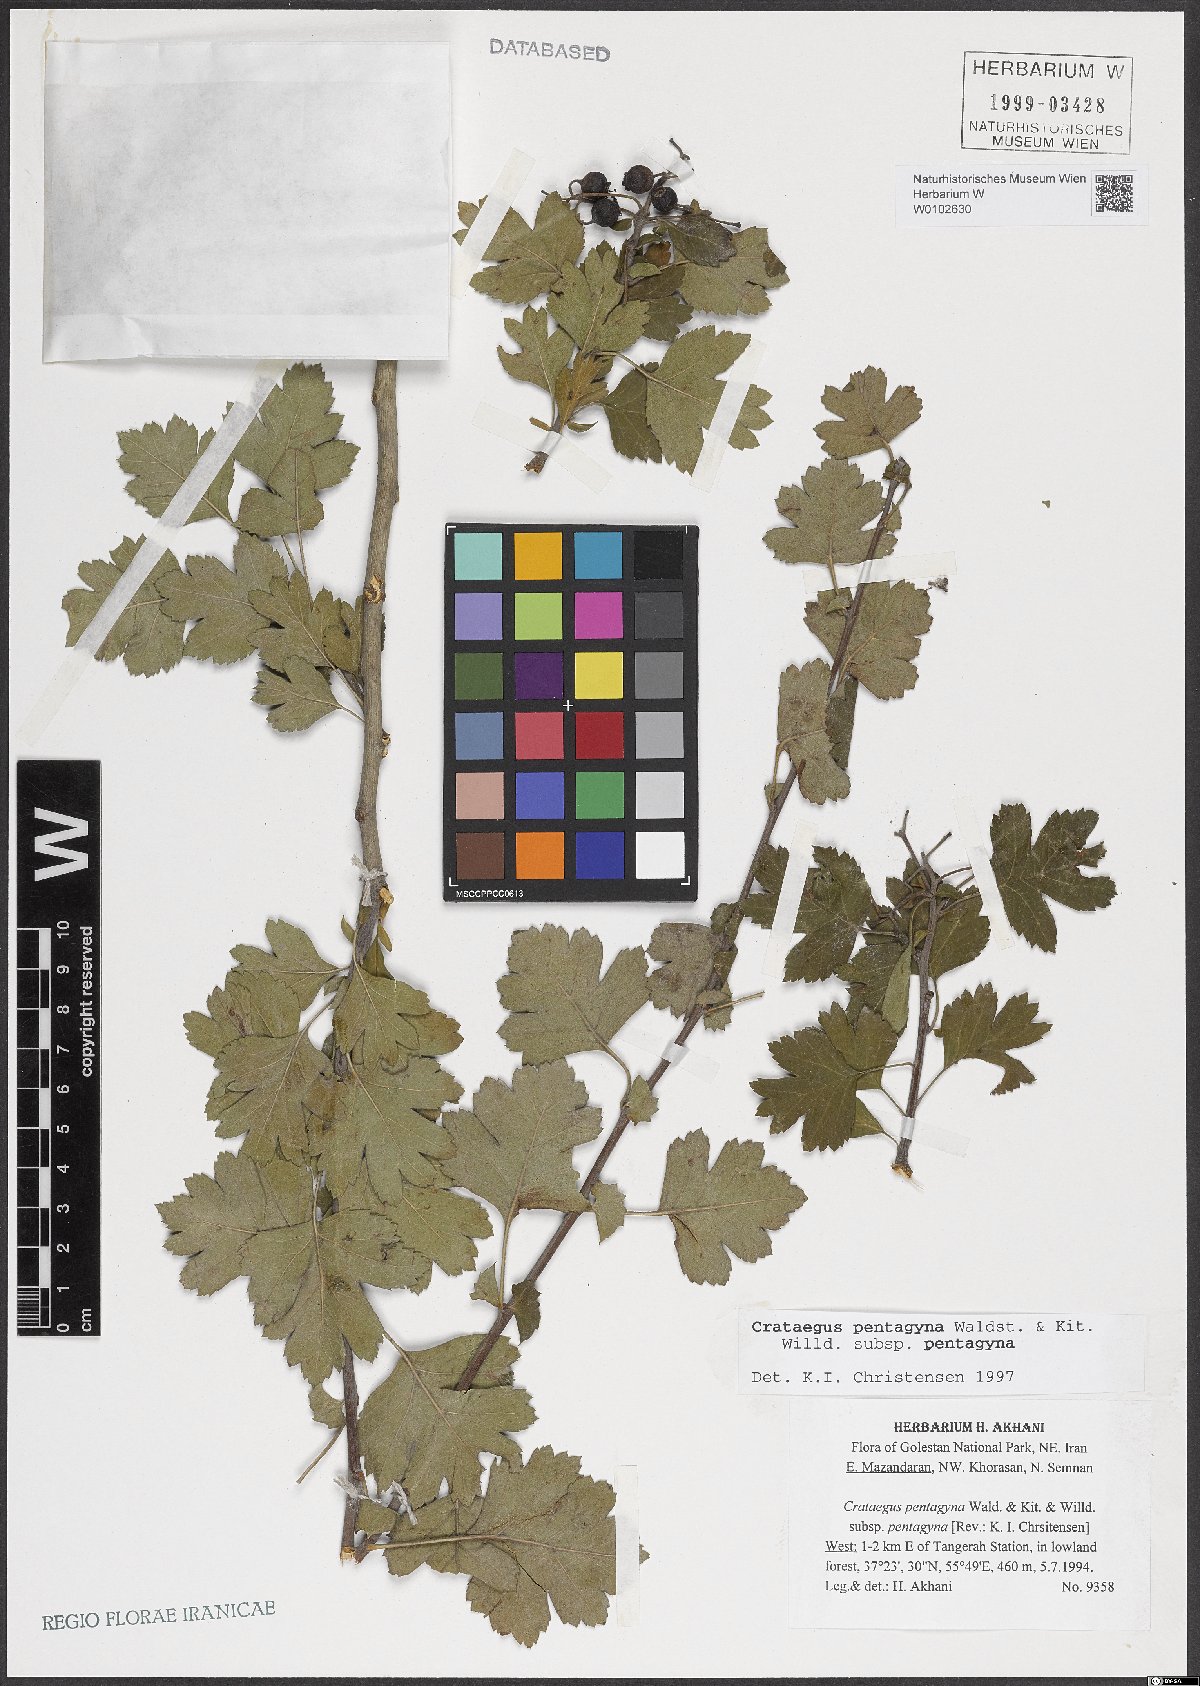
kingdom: Plantae
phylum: Tracheophyta
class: Magnoliopsida
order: Rosales
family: Rosaceae
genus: Crataegus
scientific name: Crataegus pentagyna
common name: Small-flowered black hawthorn
